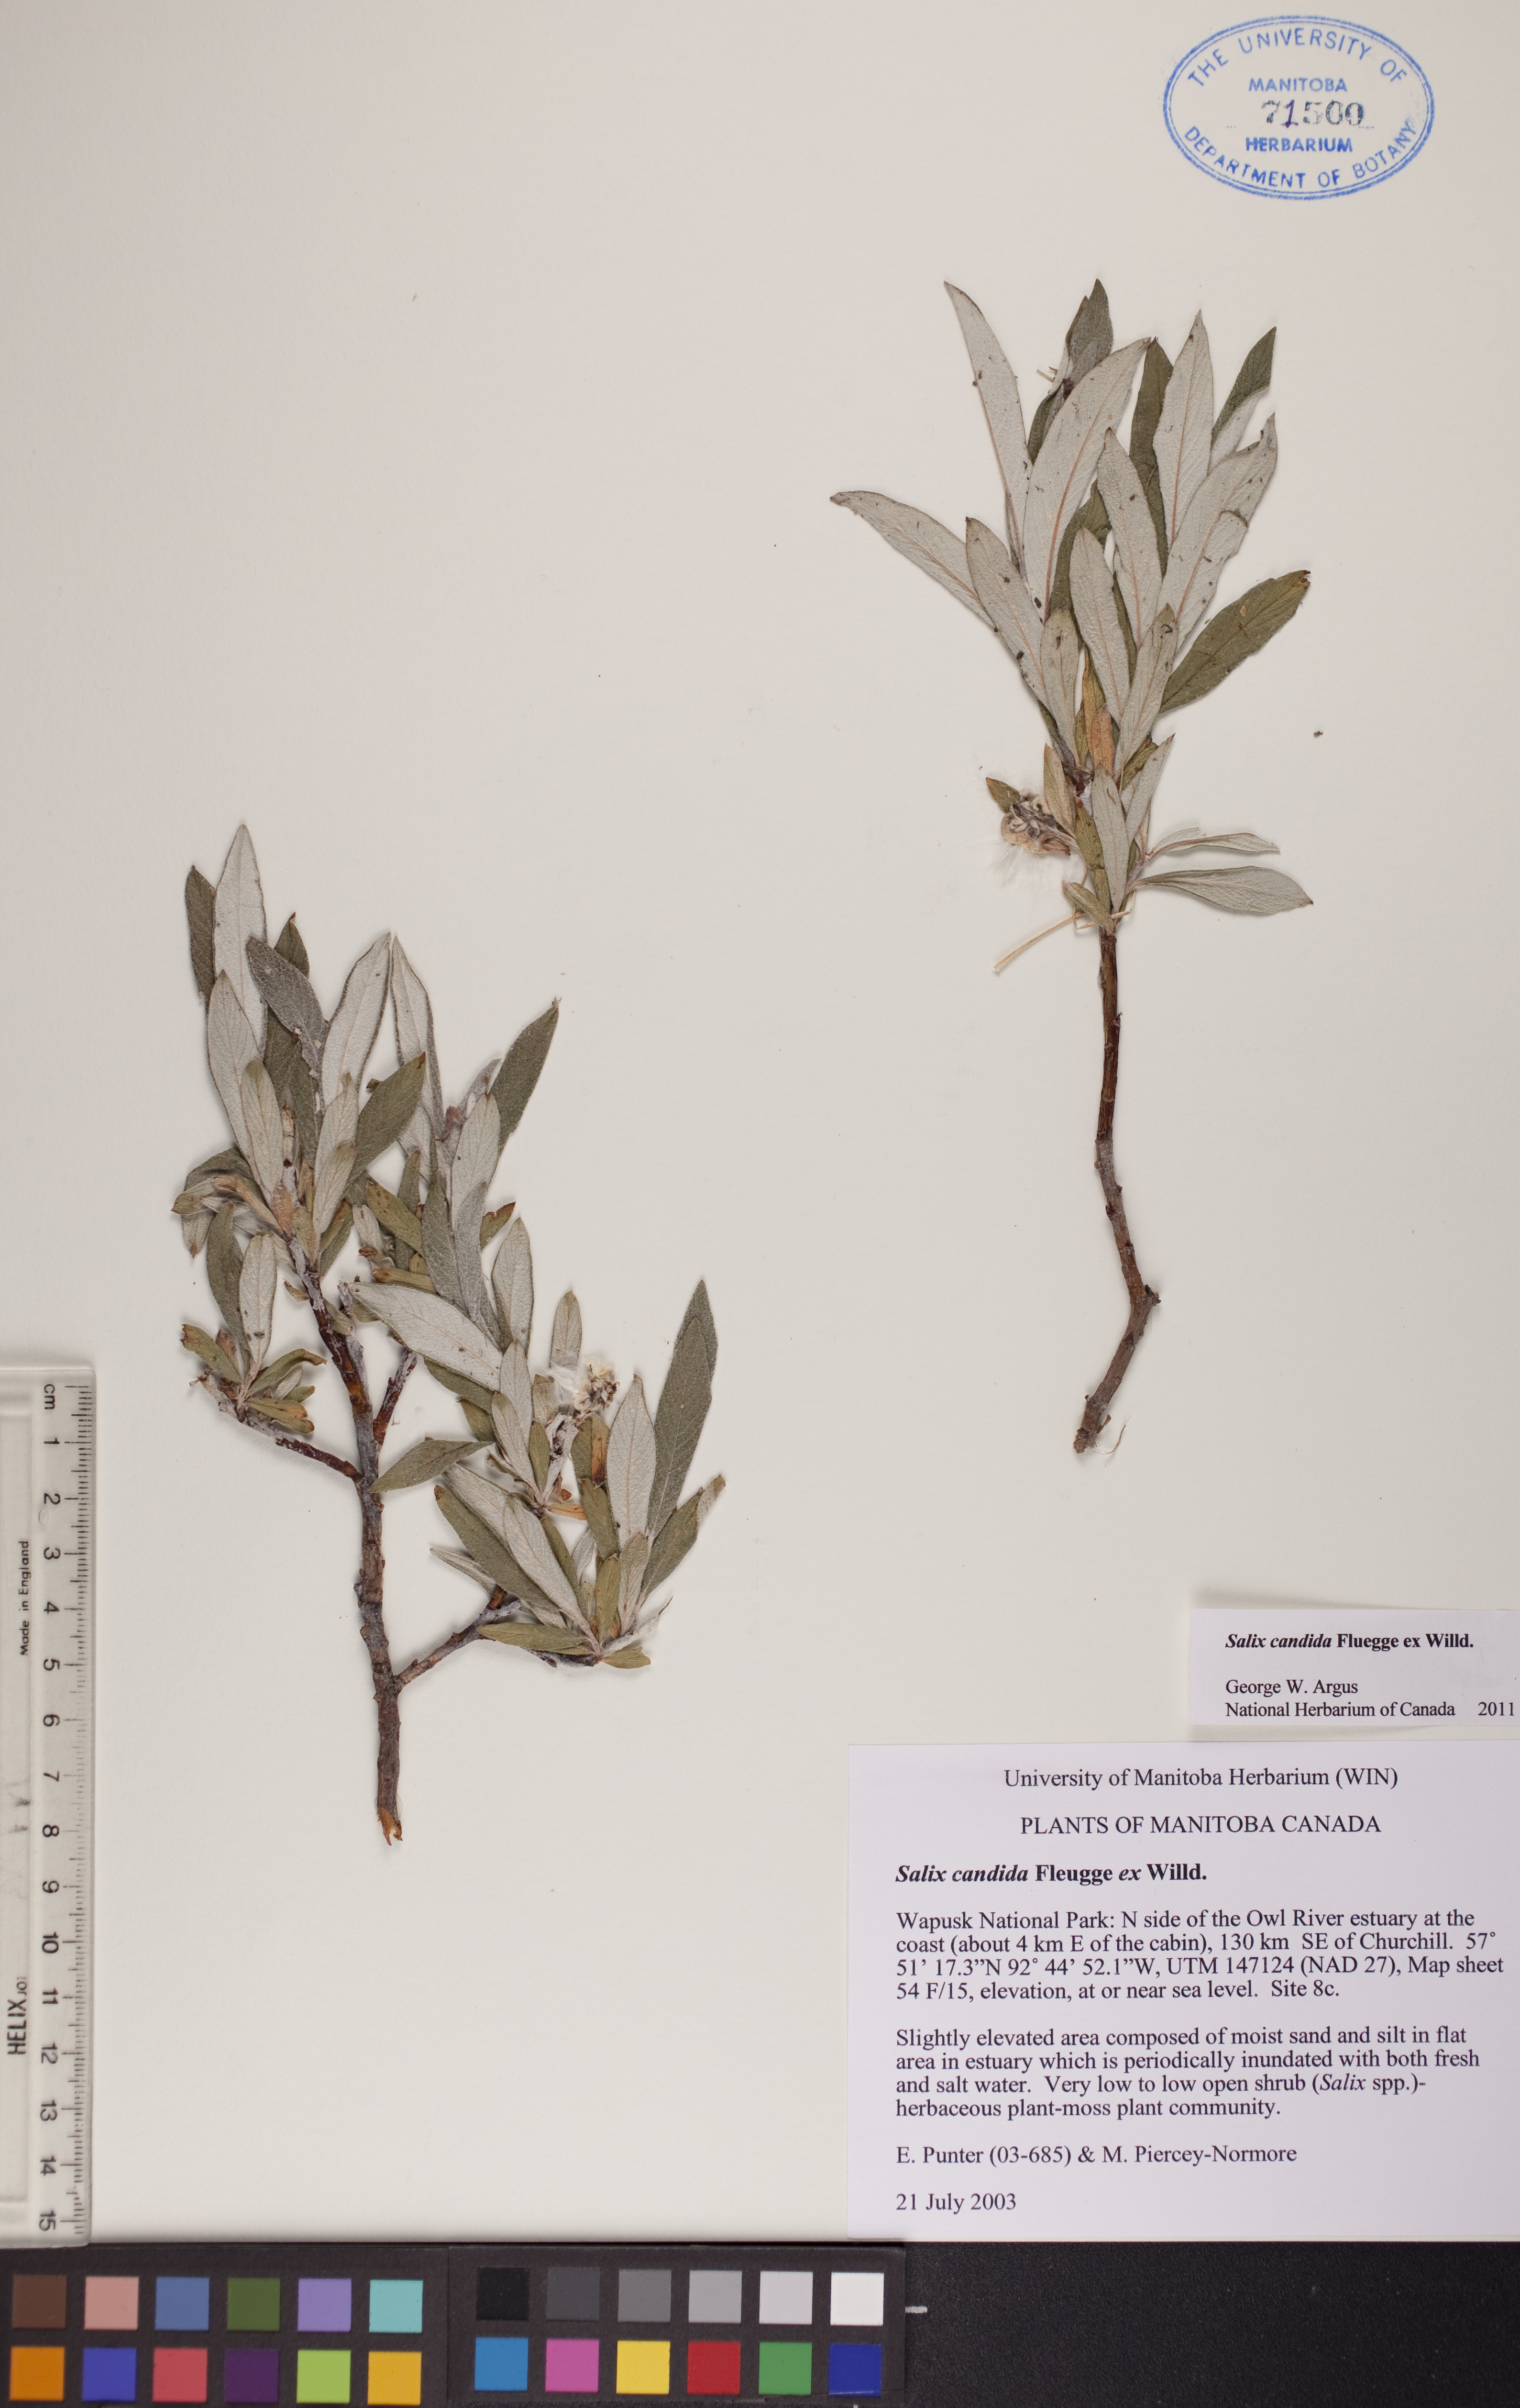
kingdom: Plantae
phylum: Tracheophyta
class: Magnoliopsida
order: Malpighiales
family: Salicaceae
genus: Salix
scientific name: Salix candida
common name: Hoary willow
